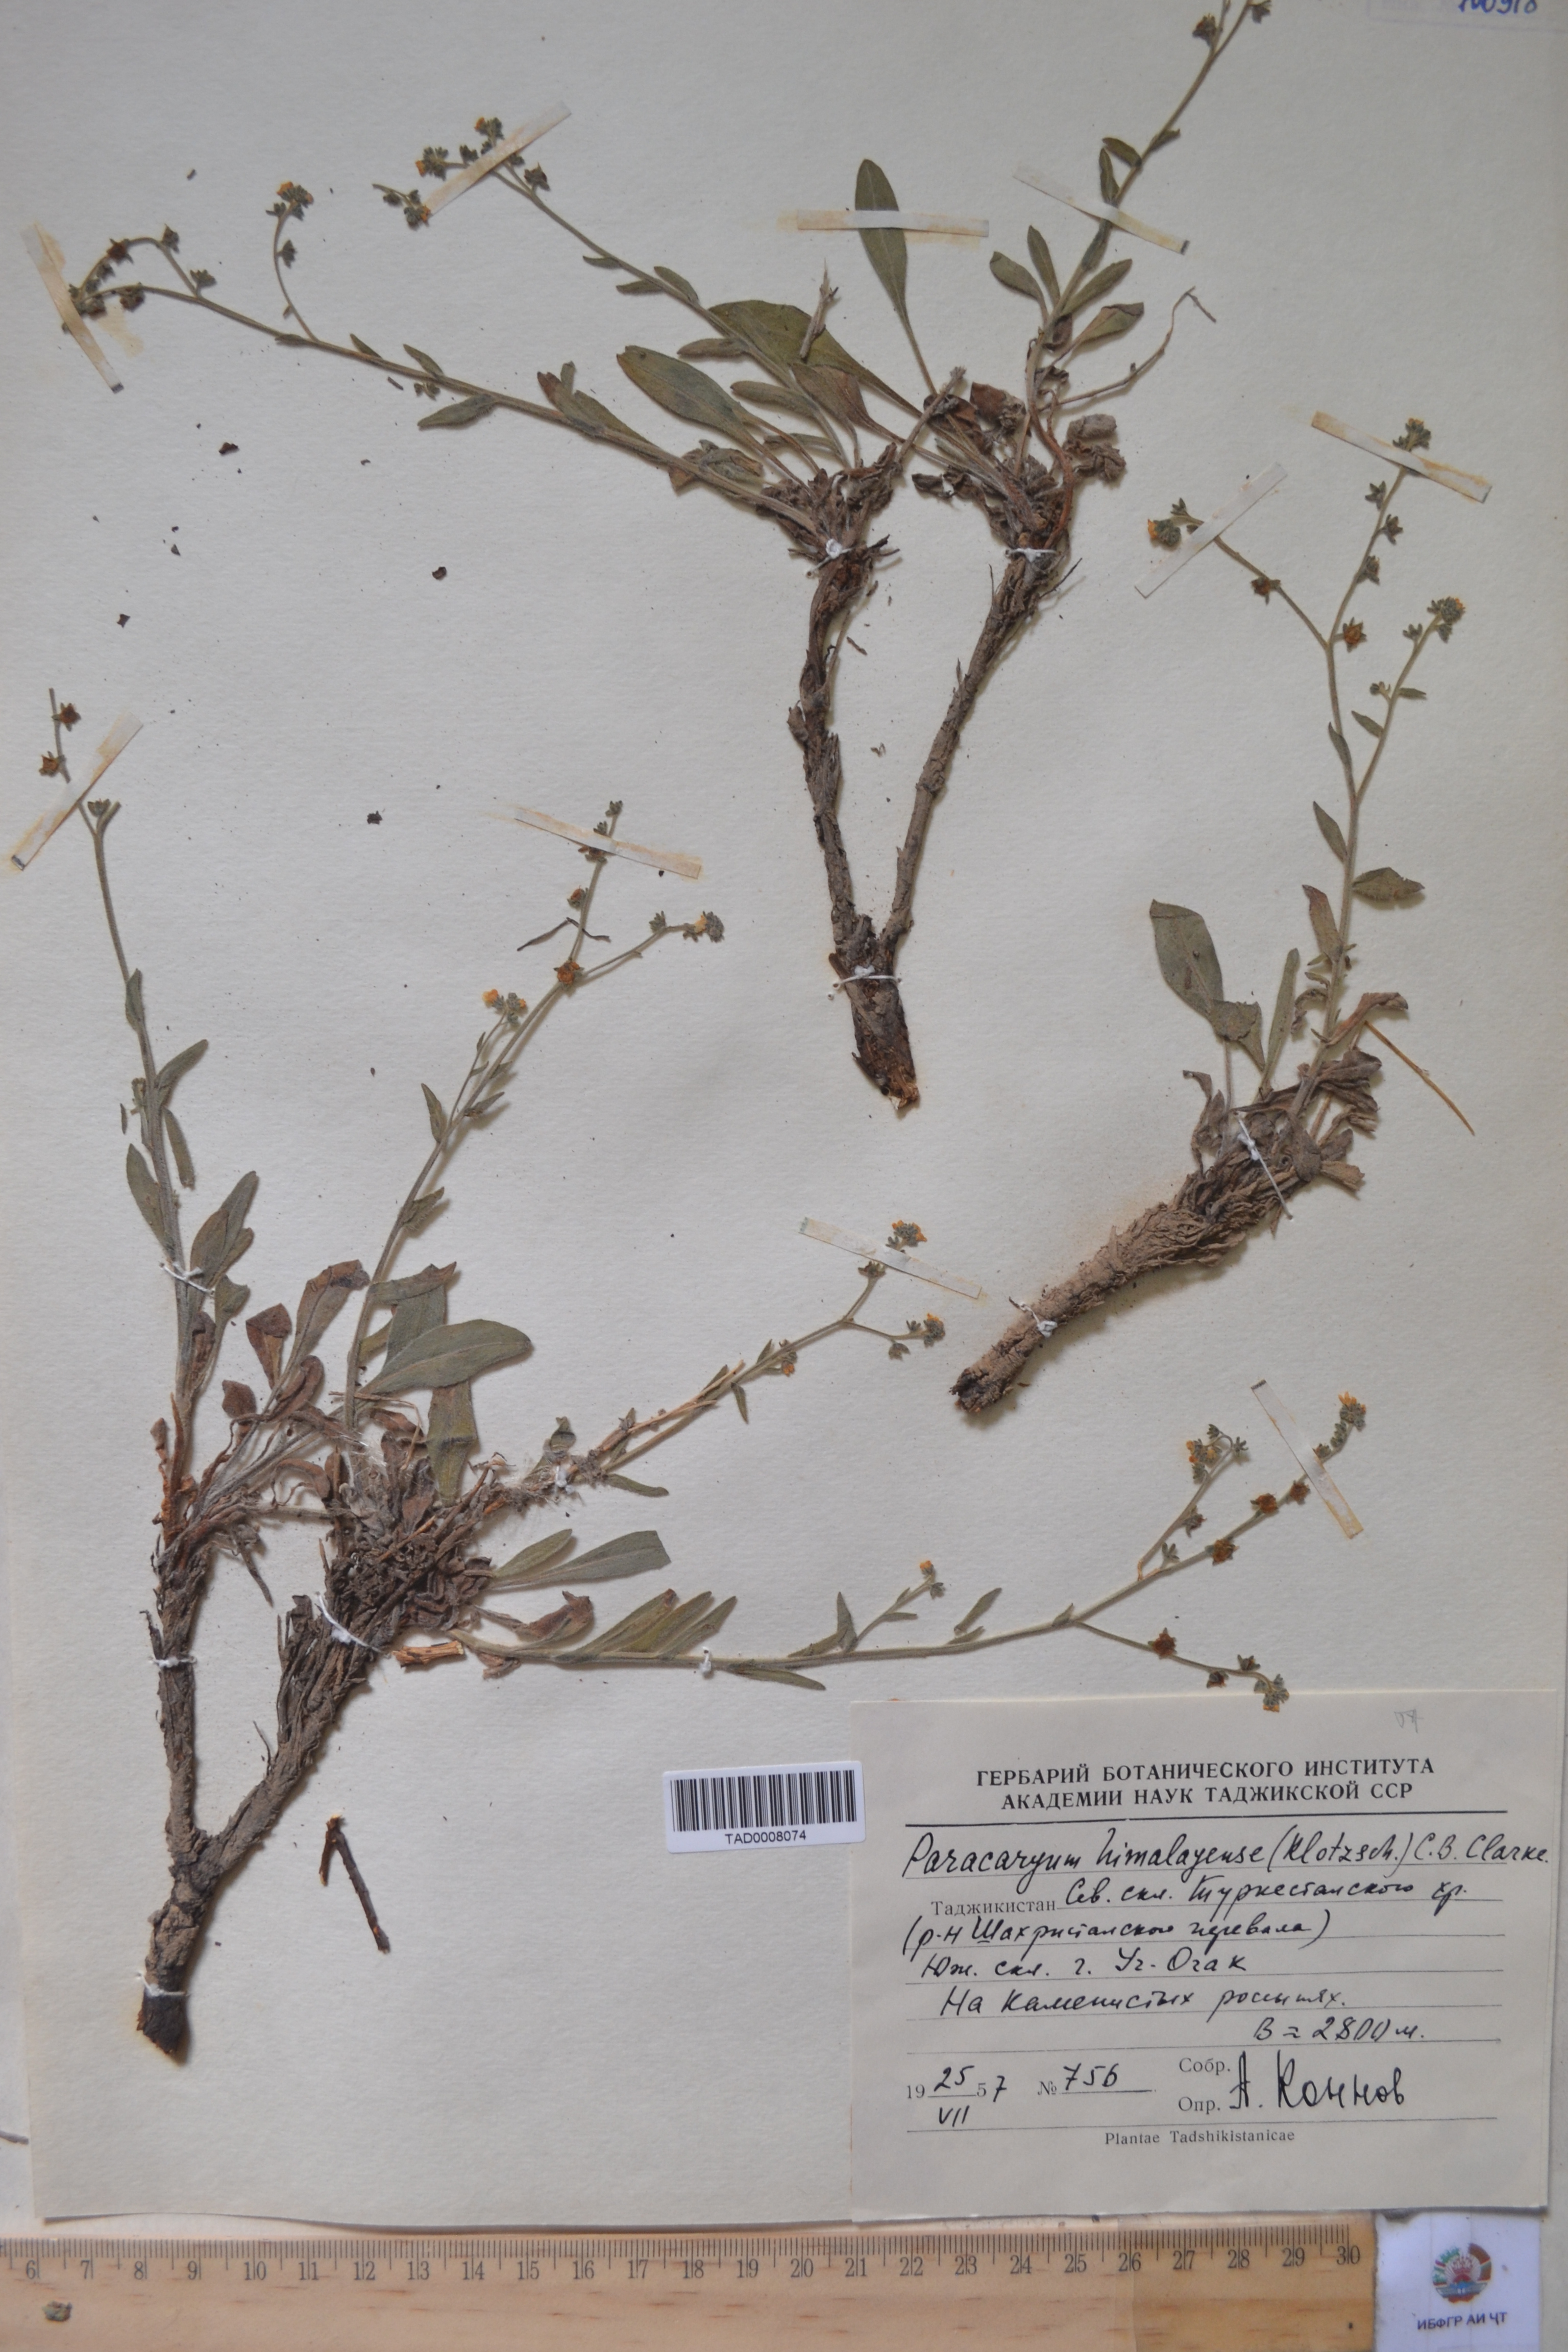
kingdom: Plantae
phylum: Tracheophyta
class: Magnoliopsida
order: Boraginales
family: Boraginaceae
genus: Paracaryum
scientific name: Paracaryum himalayense
